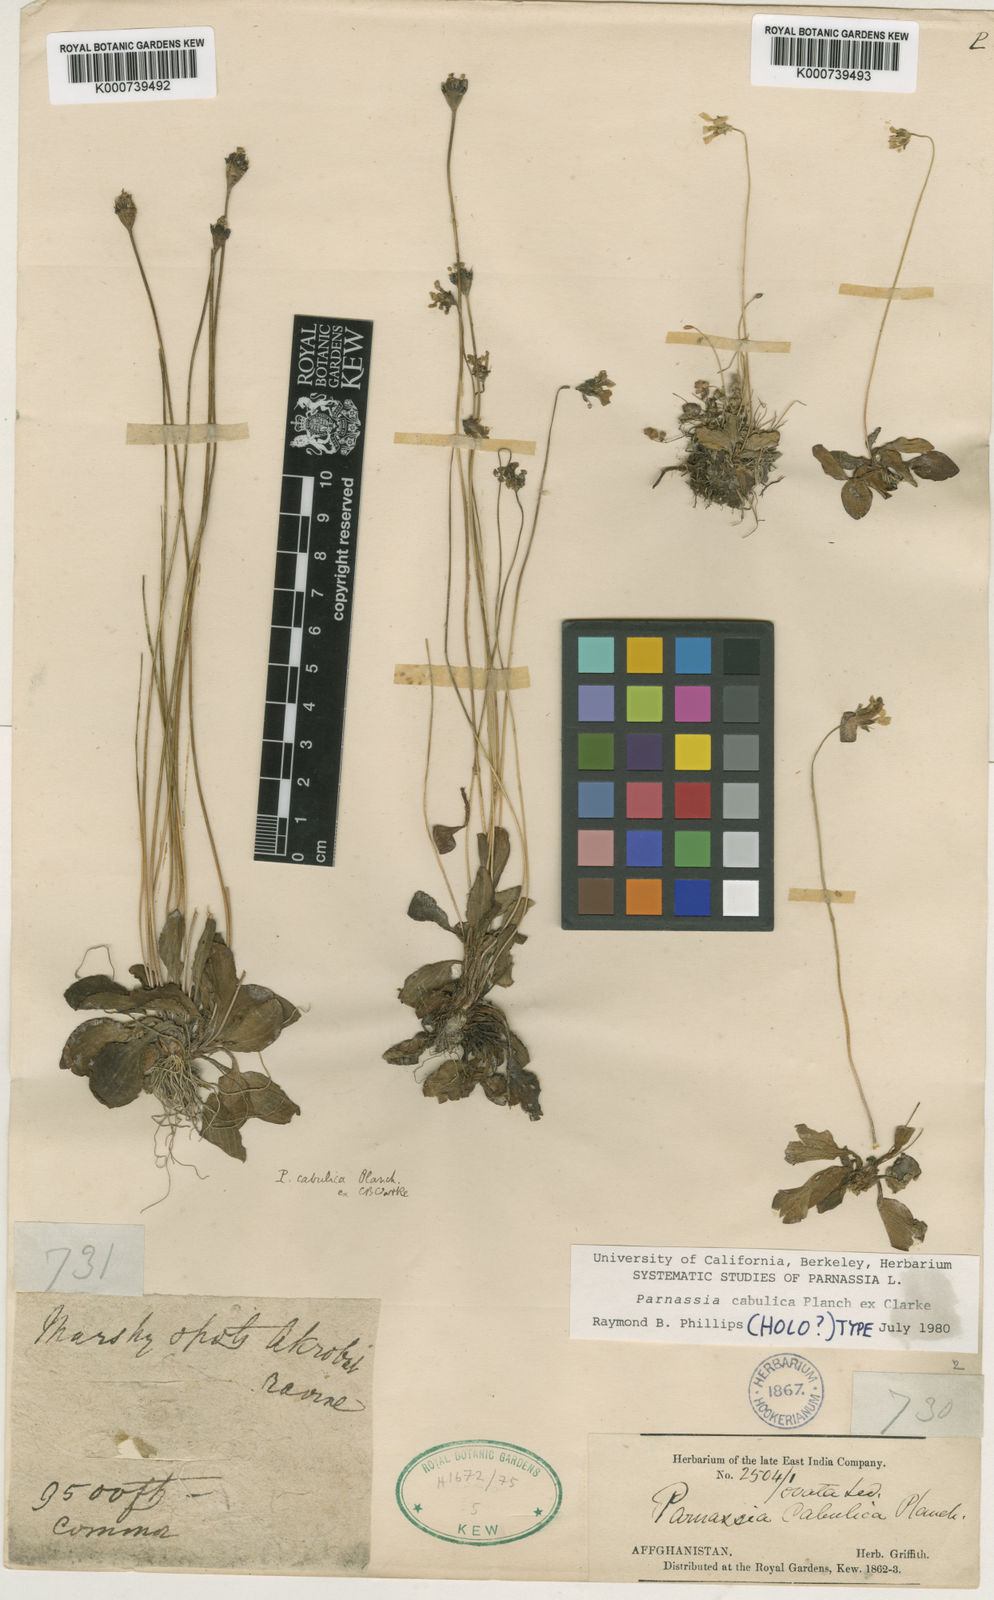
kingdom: Plantae
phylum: Tracheophyta
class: Magnoliopsida
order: Celastrales
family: Parnassiaceae
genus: Parnassia
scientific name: Parnassia cabulica
